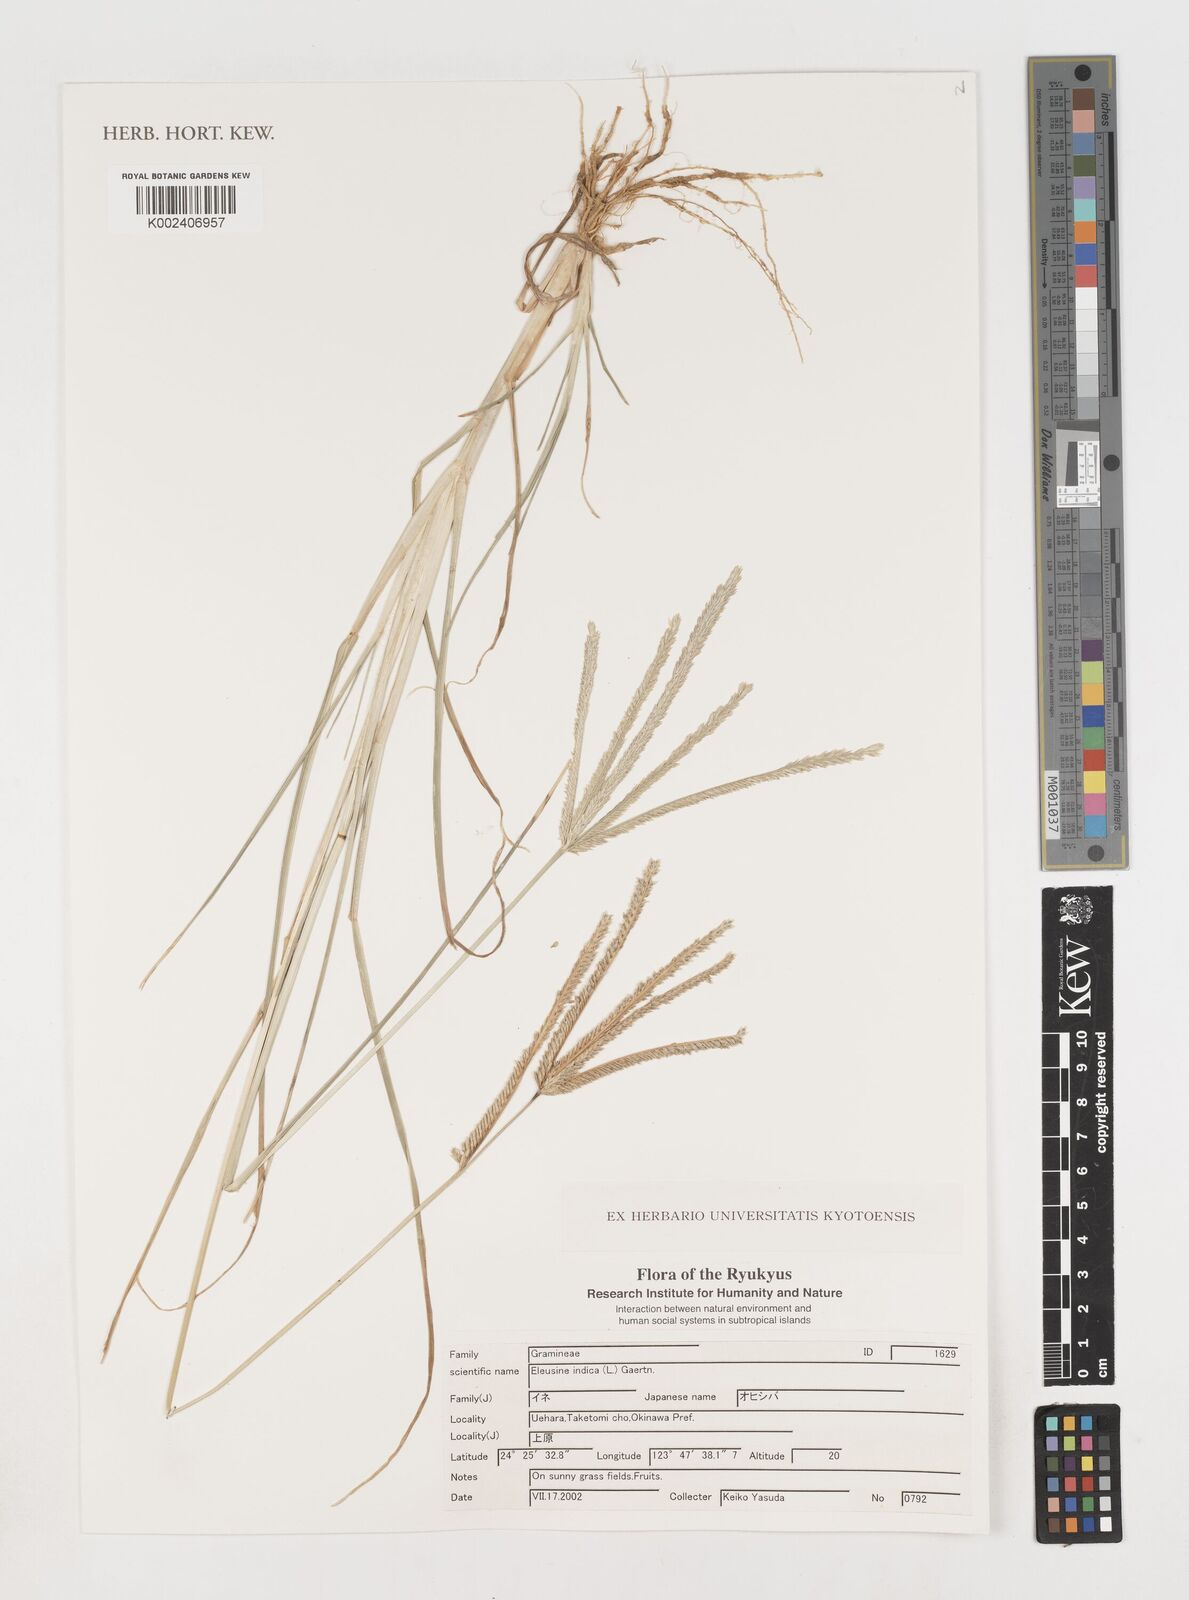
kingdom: Plantae
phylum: Tracheophyta
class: Liliopsida
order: Poales
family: Poaceae
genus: Eleusine
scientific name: Eleusine indica
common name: Yard-grass
